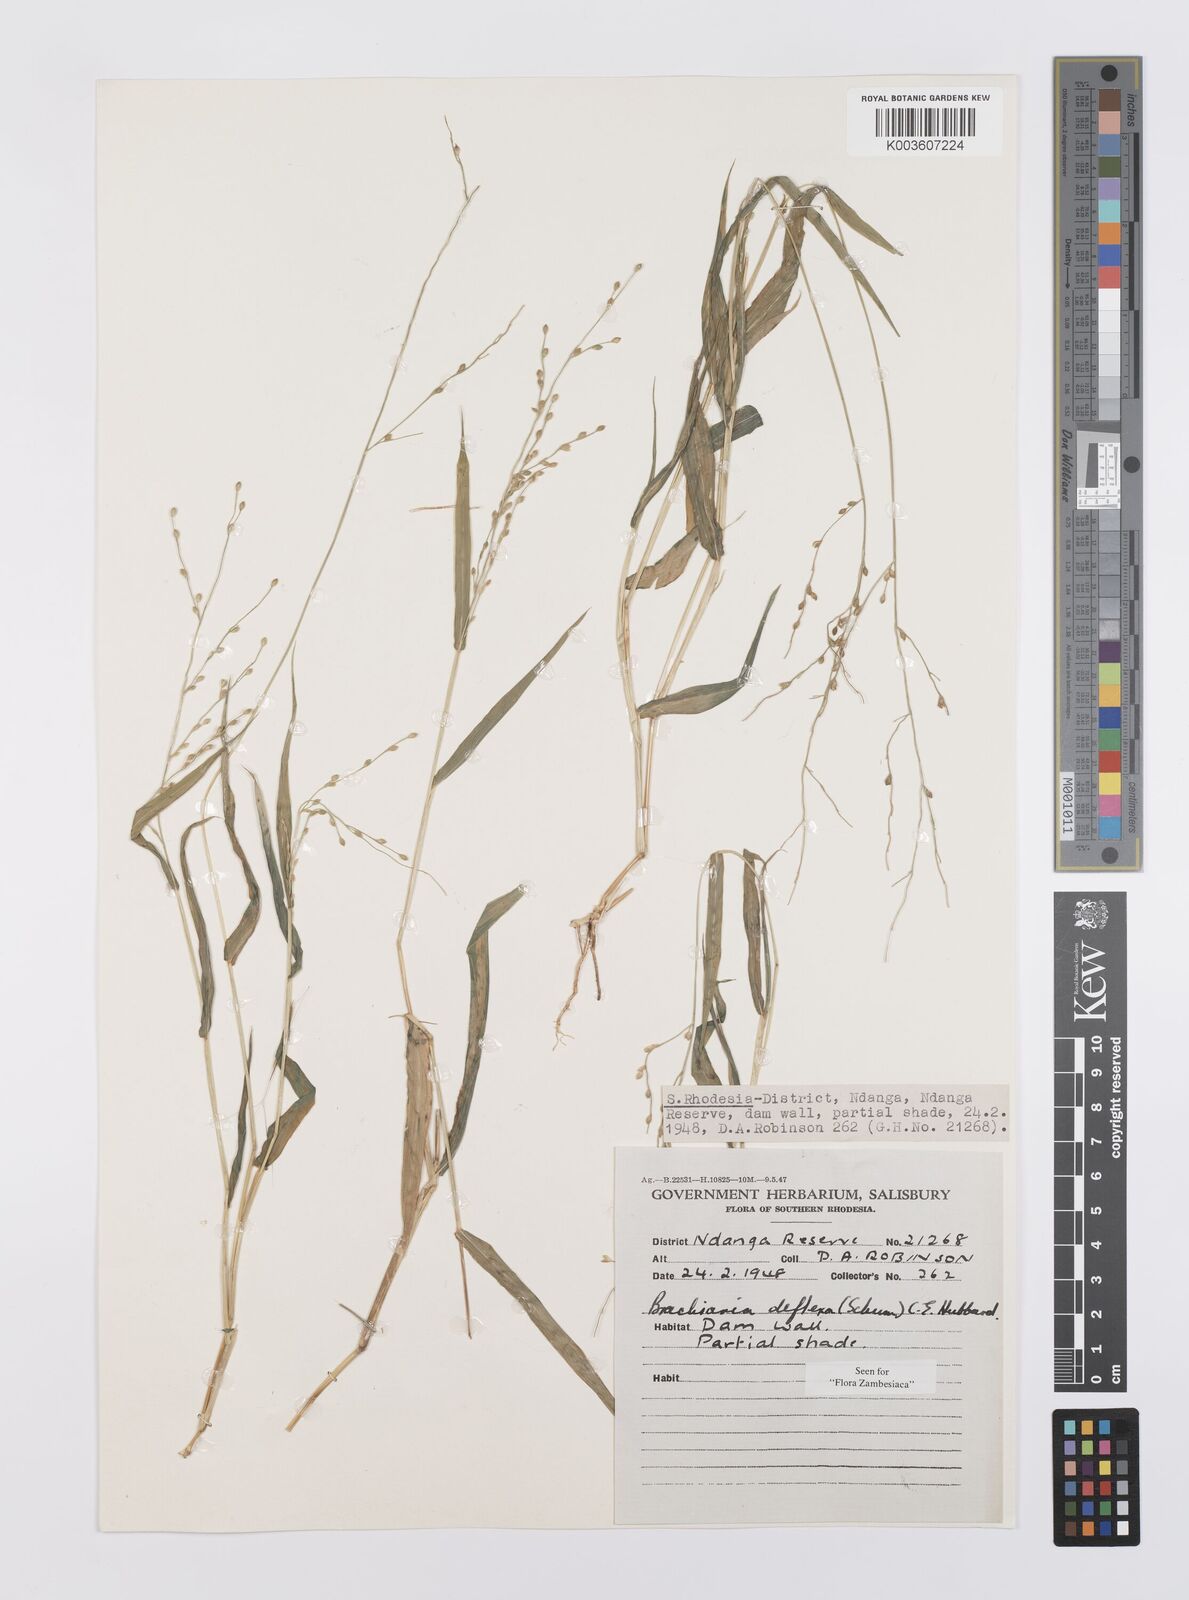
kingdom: Plantae
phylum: Tracheophyta
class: Liliopsida
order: Poales
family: Poaceae
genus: Urochloa
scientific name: Urochloa deflexa
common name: Guinea millet
